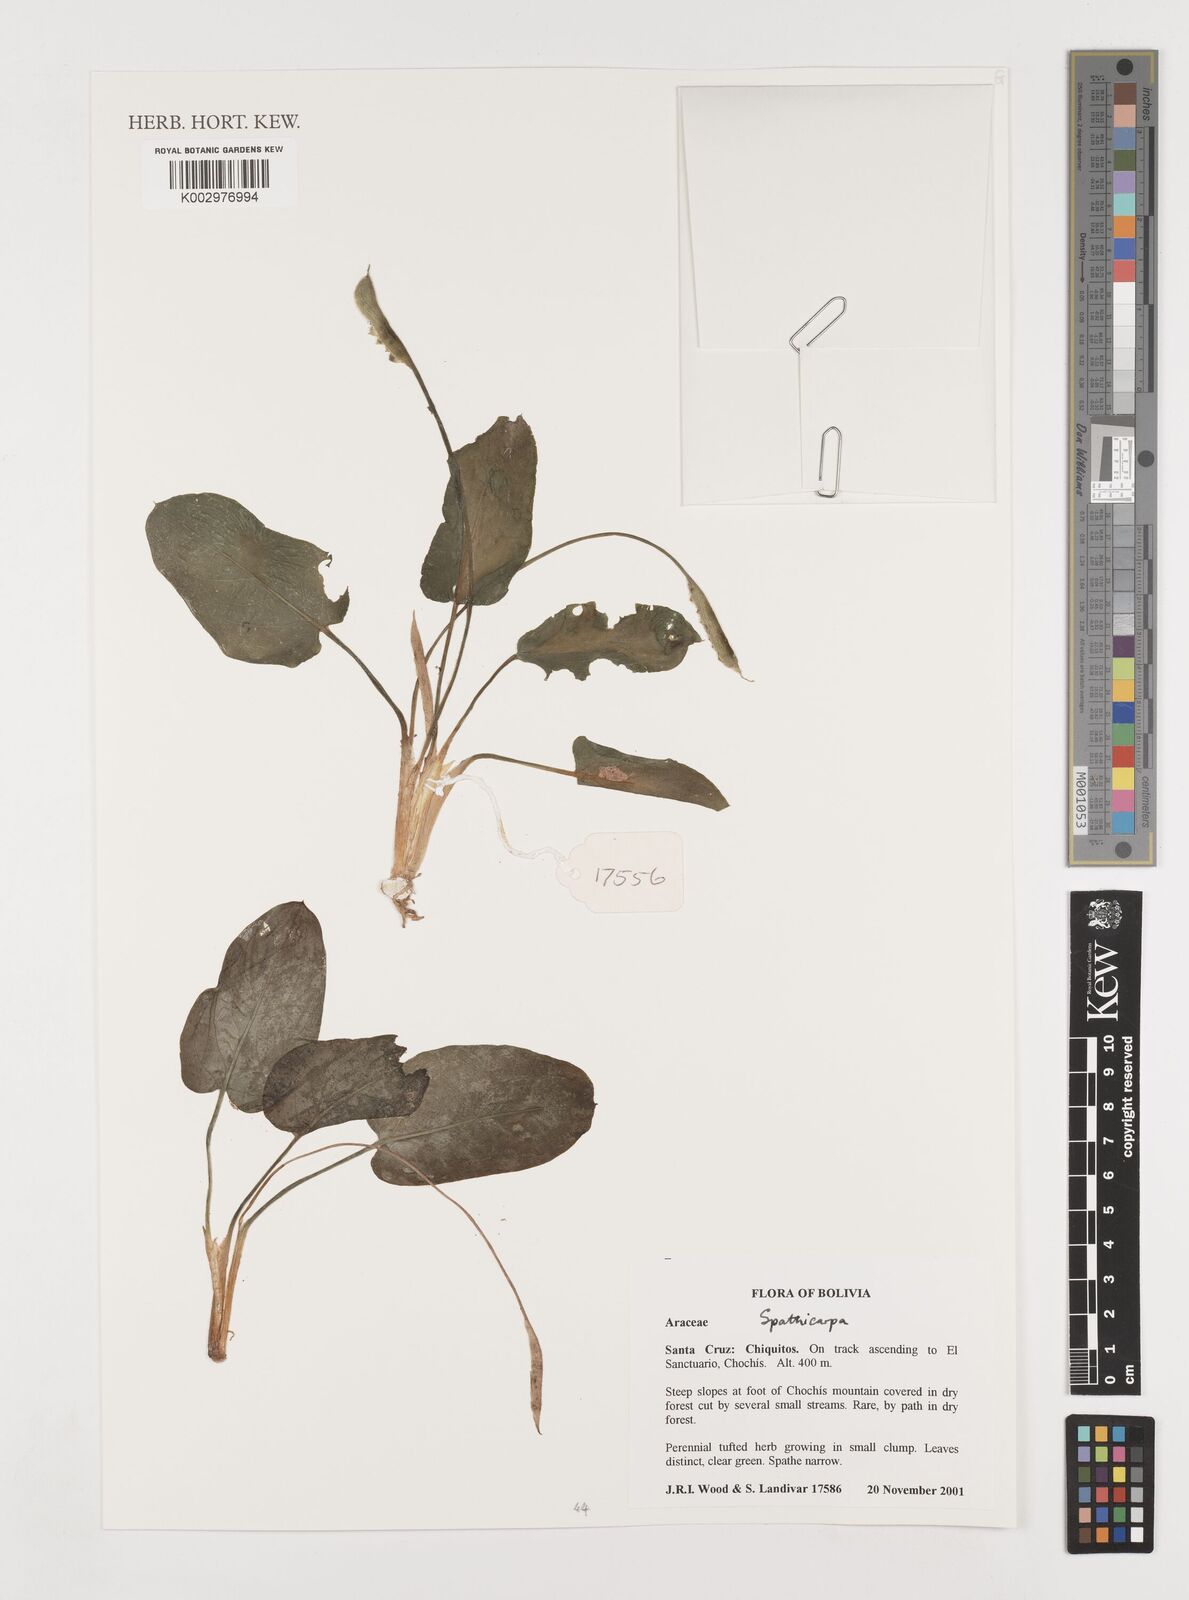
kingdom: Plantae
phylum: Tracheophyta
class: Liliopsida
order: Alismatales
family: Araceae
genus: Spathicarpa
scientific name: Spathicarpa
